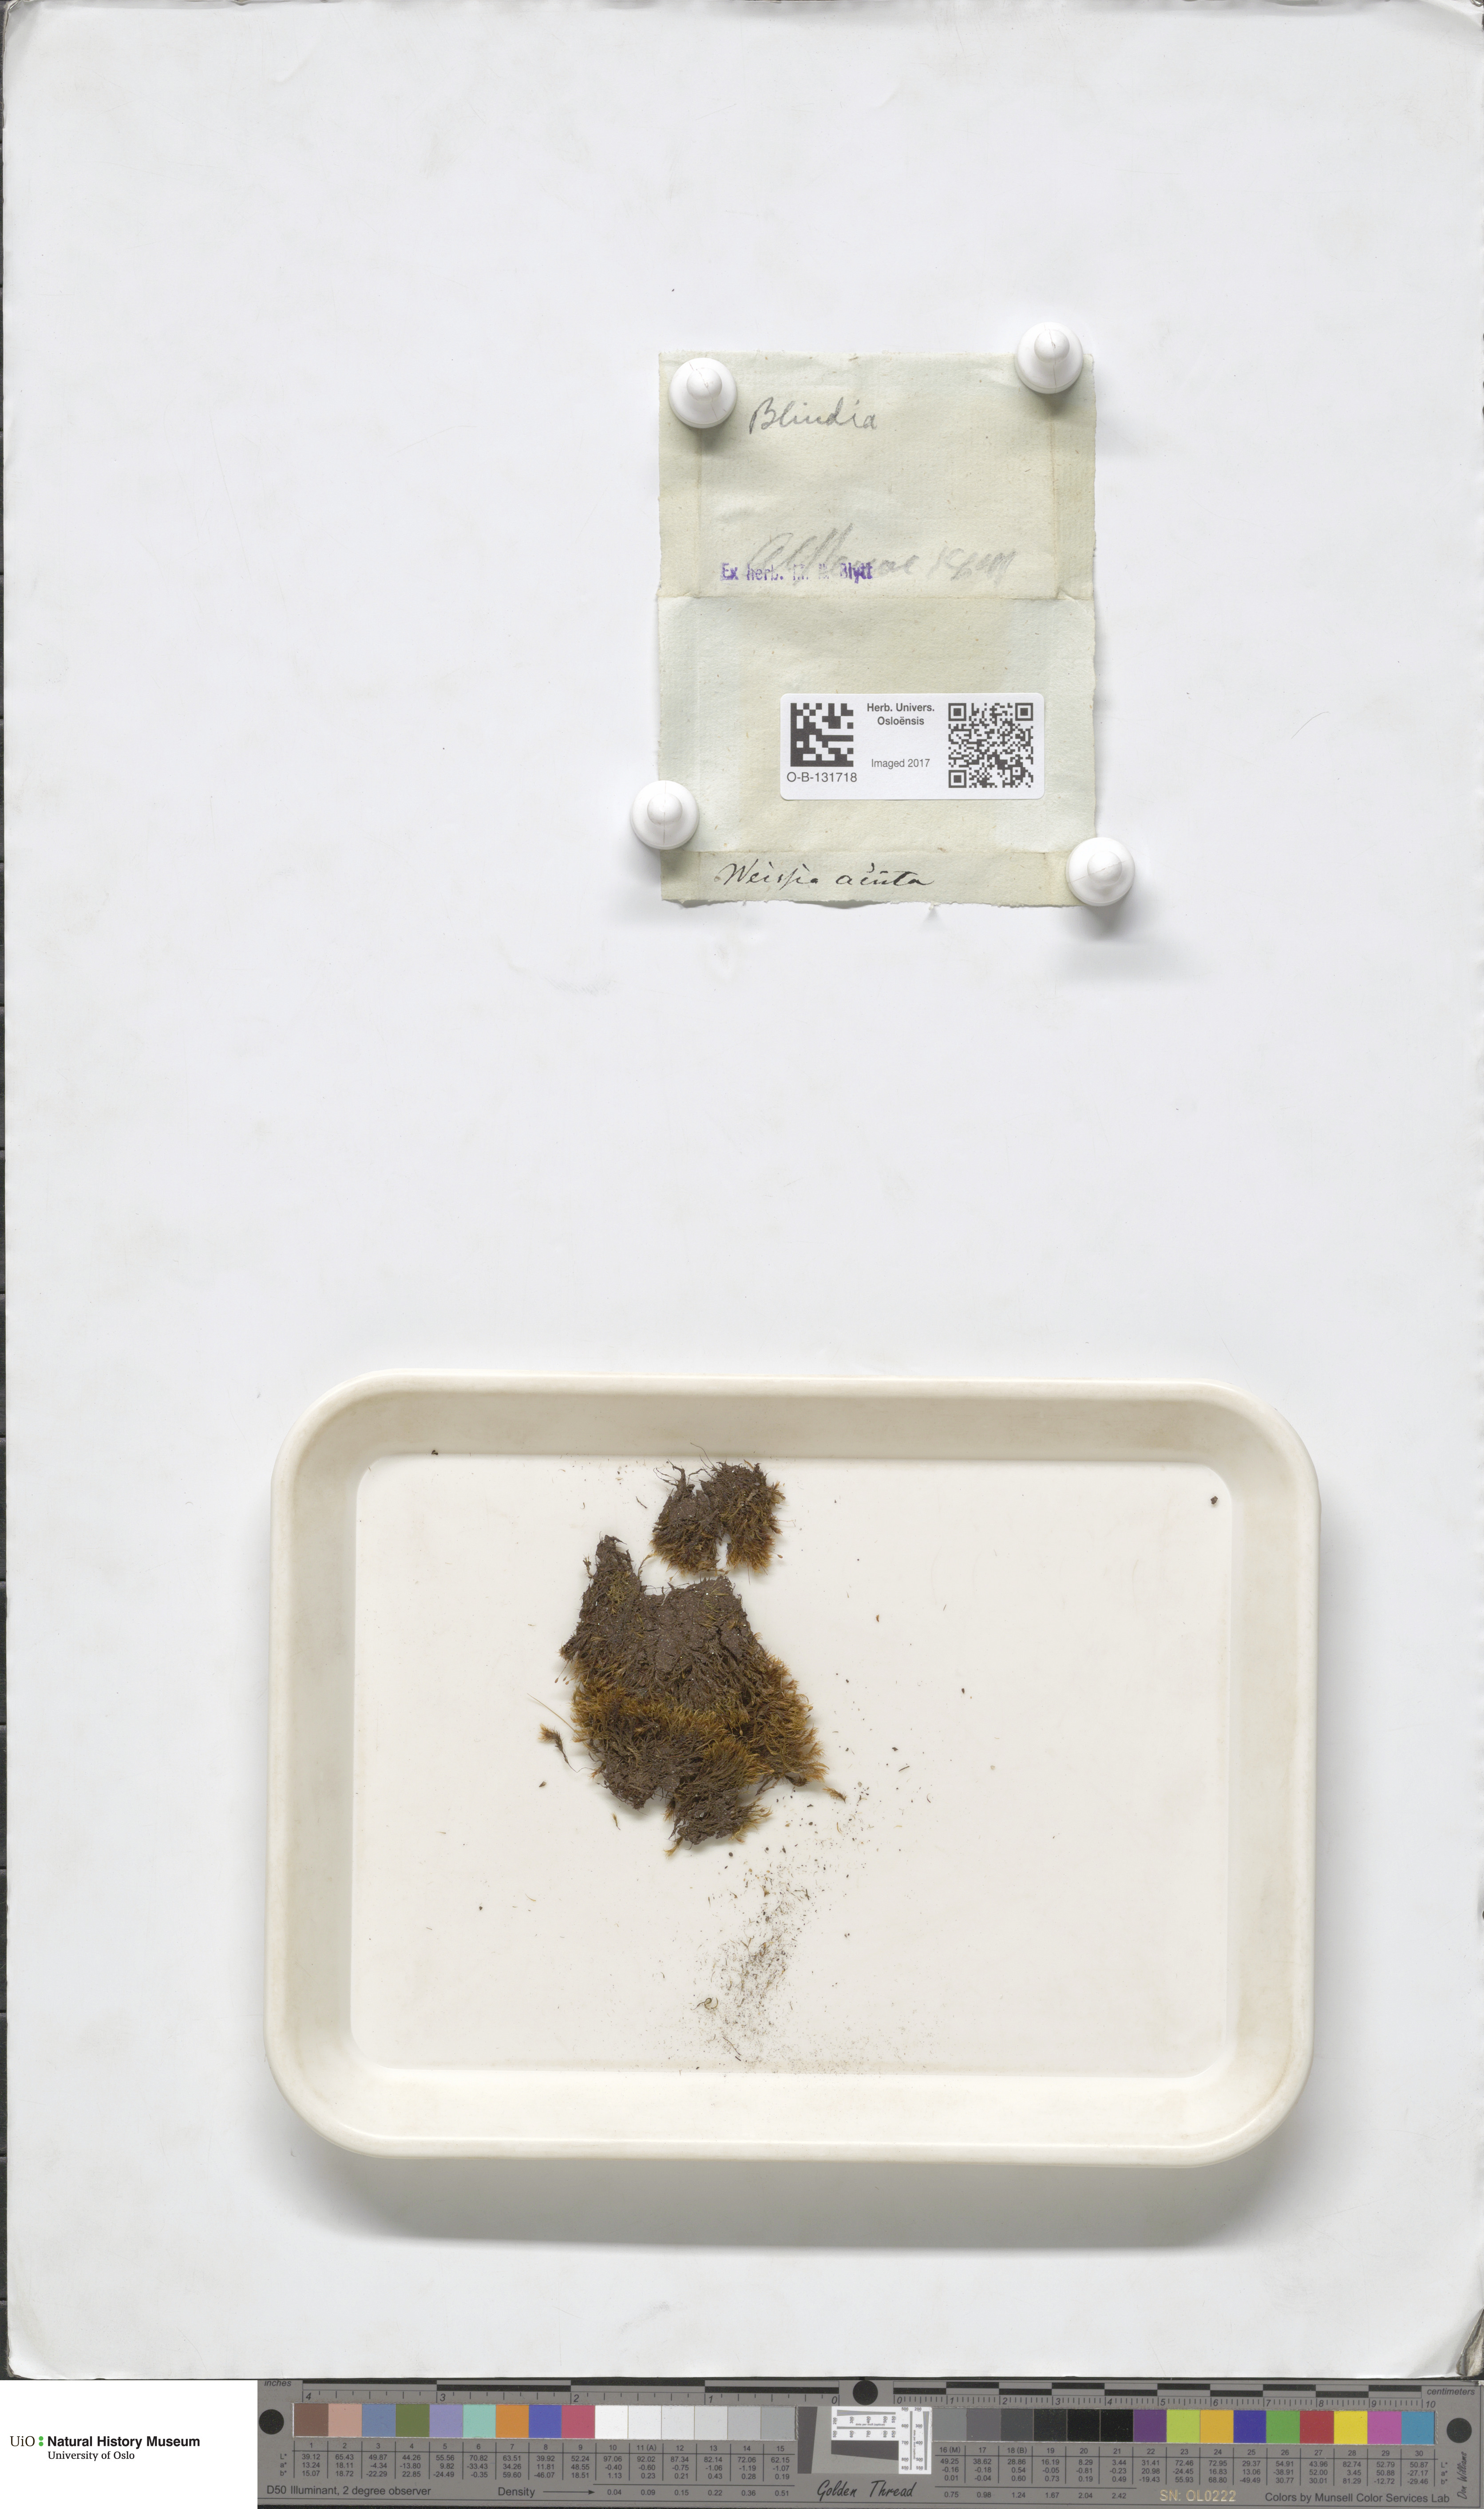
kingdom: Plantae
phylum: Bryophyta
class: Bryopsida
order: Grimmiales
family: Seligeriaceae
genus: Blindia
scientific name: Blindia acuta
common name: Sharp-leaved blind's moss
